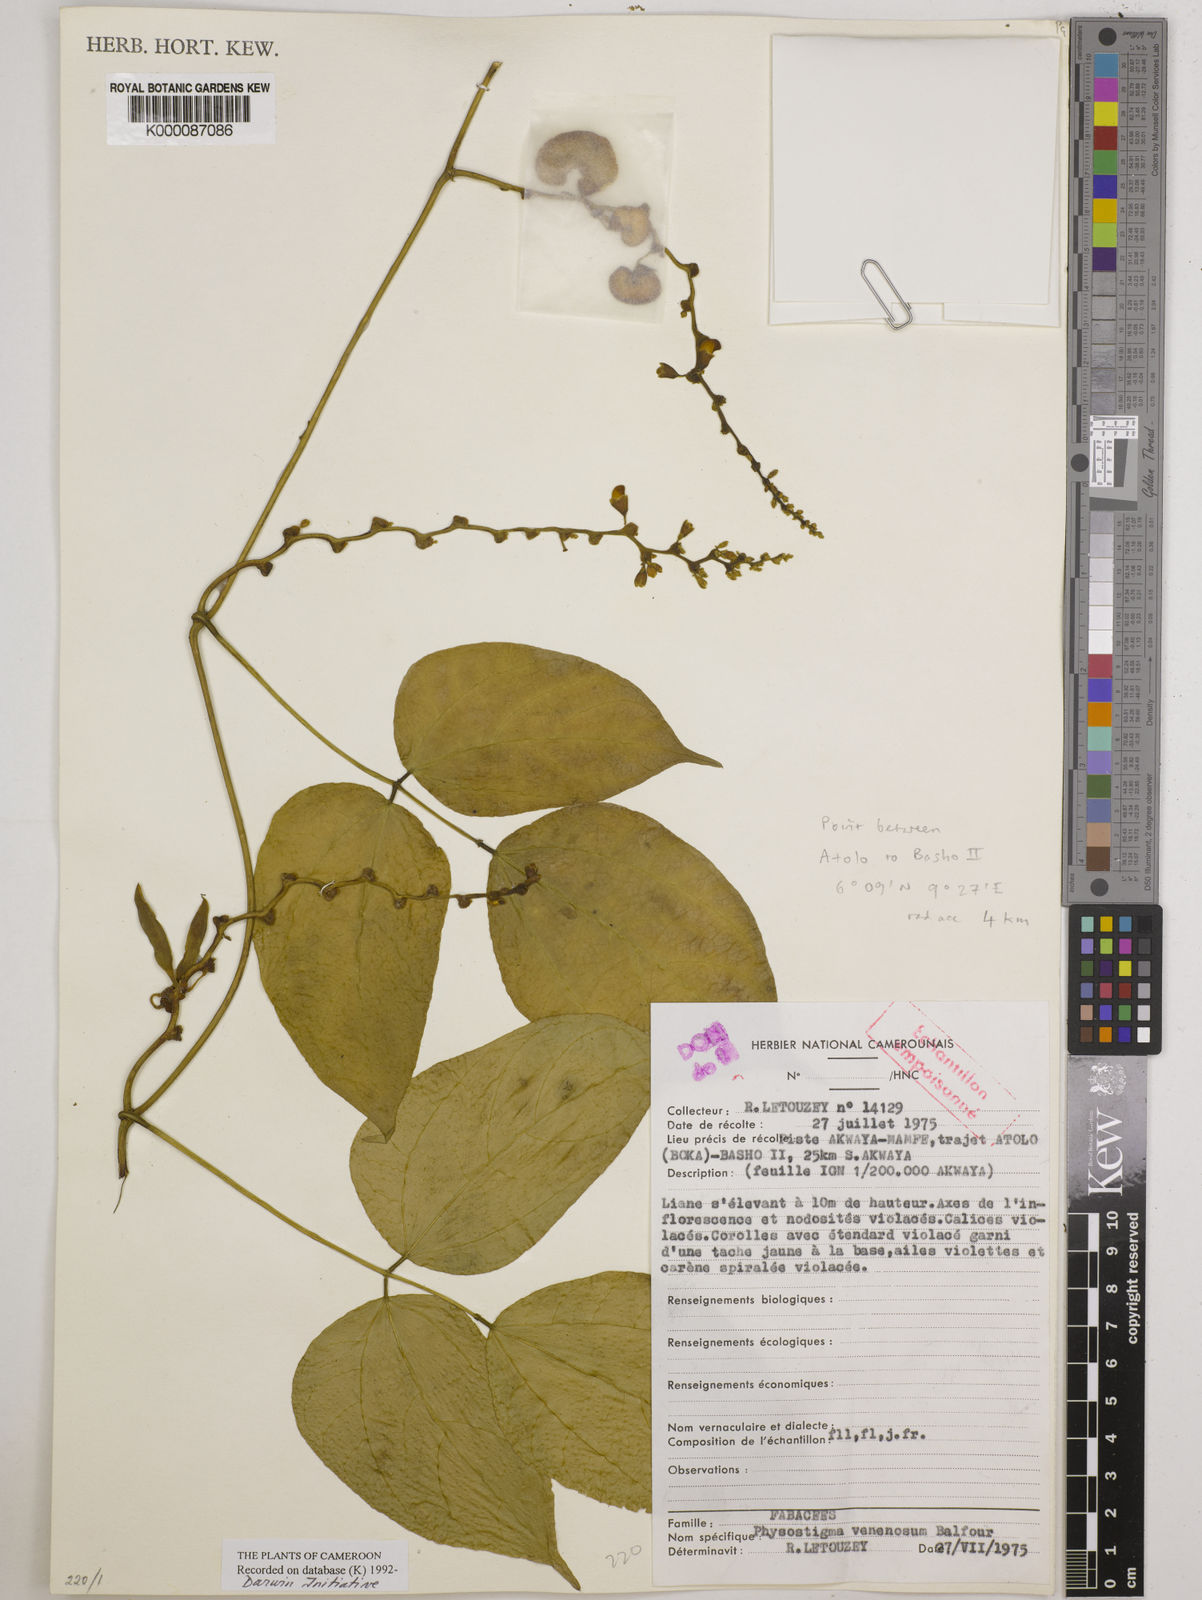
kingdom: Plantae
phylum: Tracheophyta
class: Magnoliopsida
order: Fabales
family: Fabaceae
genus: Physostigma
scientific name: Physostigma venenosum
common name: Calabar-bean
